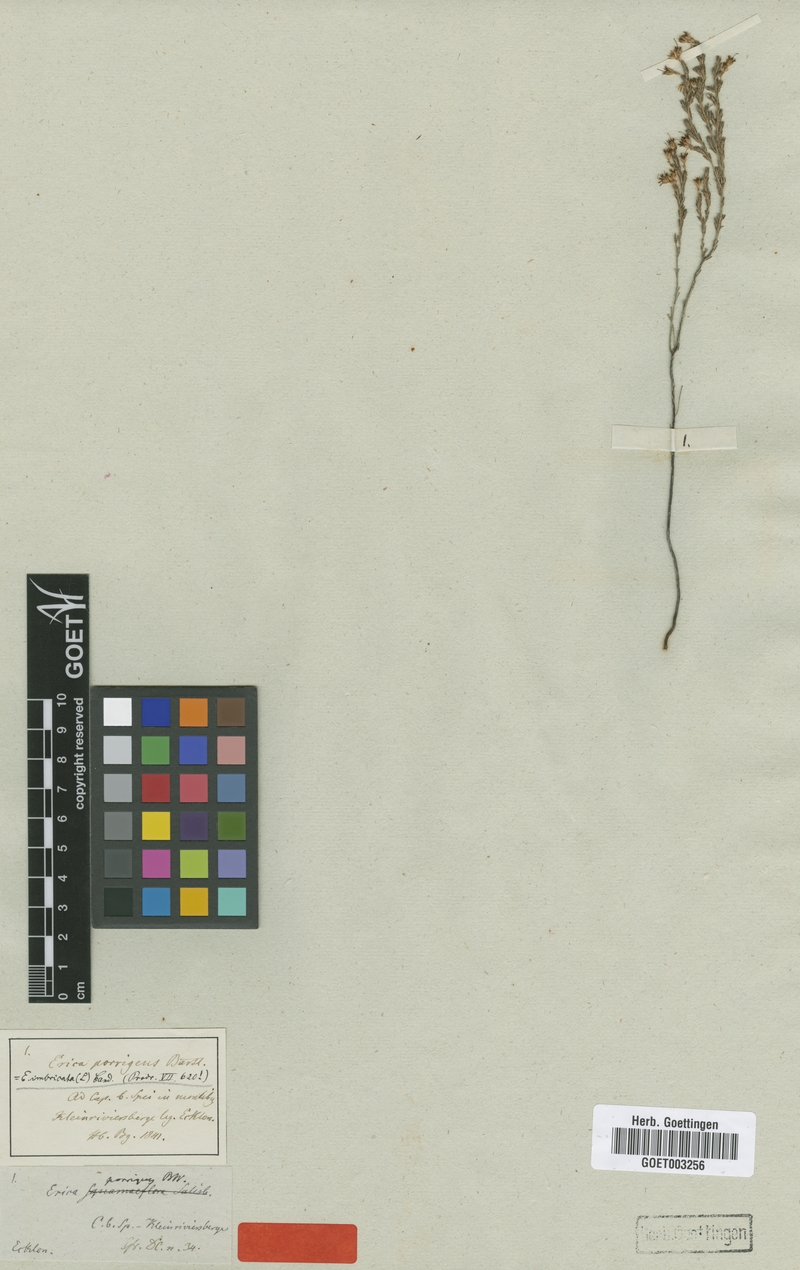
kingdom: Plantae
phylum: Tracheophyta
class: Magnoliopsida
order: Ericales
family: Ericaceae
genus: Erica
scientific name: Erica imbricata
